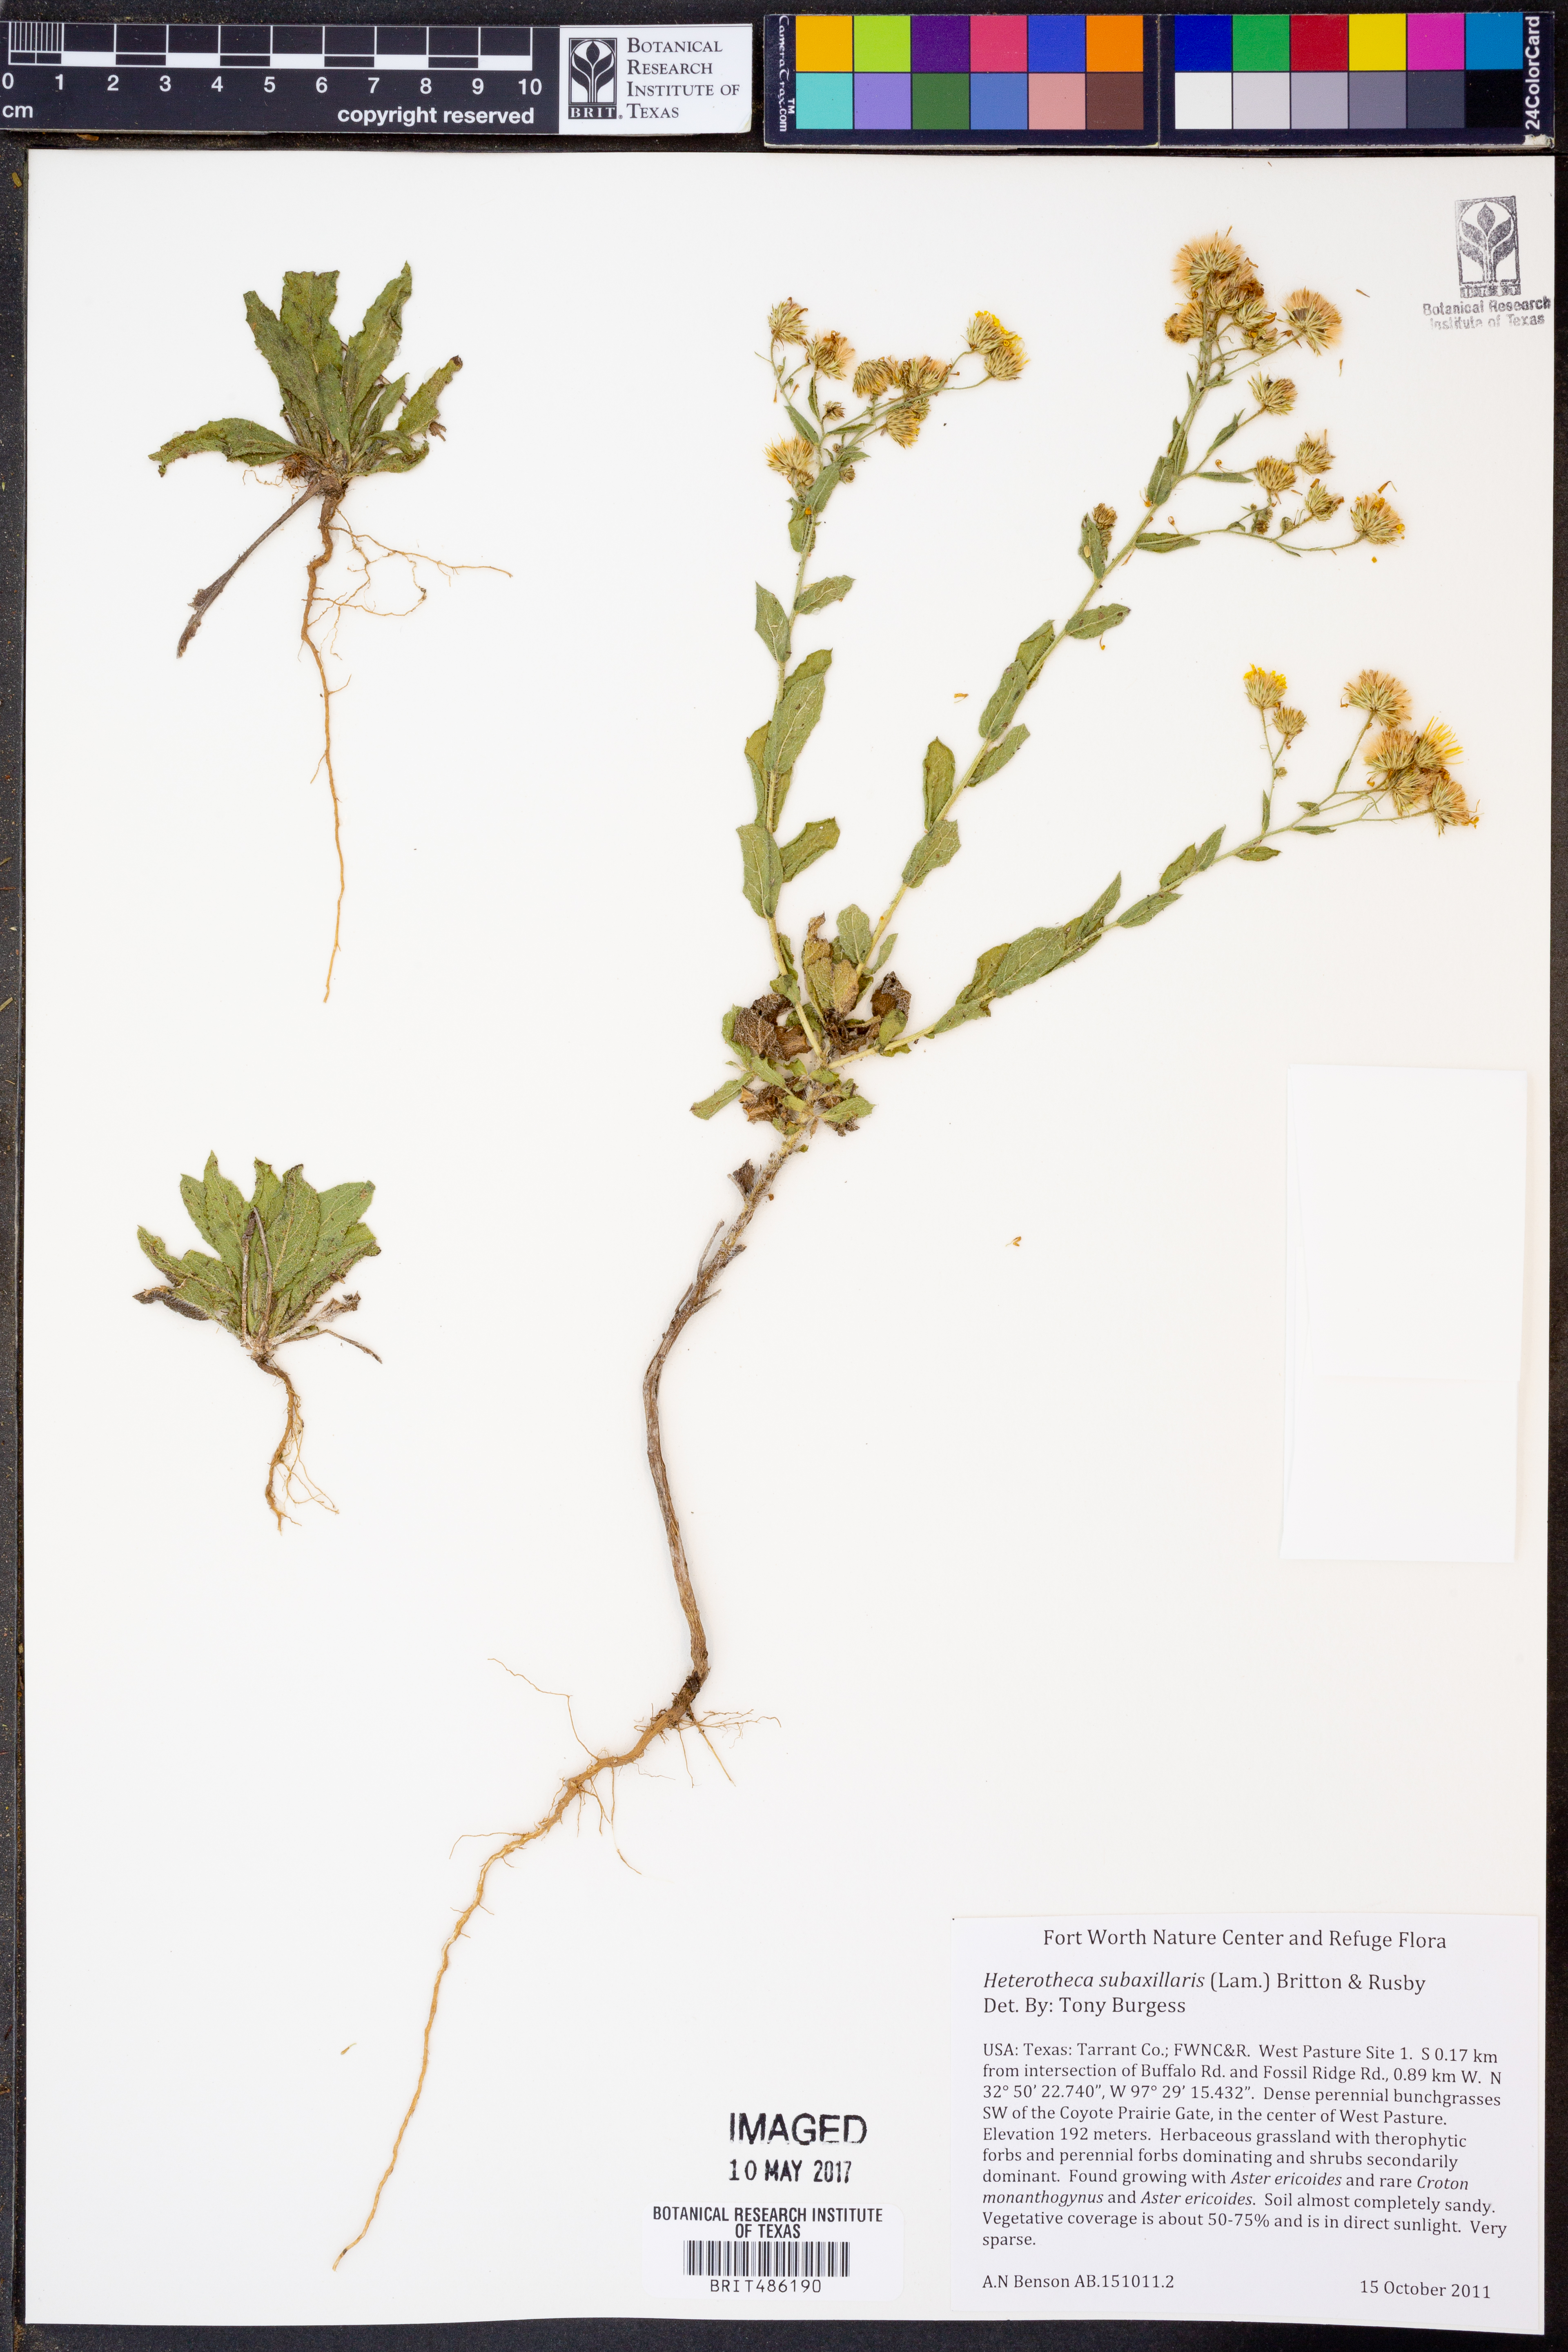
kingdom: Plantae
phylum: Tracheophyta
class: Magnoliopsida
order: Asterales
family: Asteraceae
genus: Heterotheca
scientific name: Heterotheca subaxillaris
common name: Camphorweed
